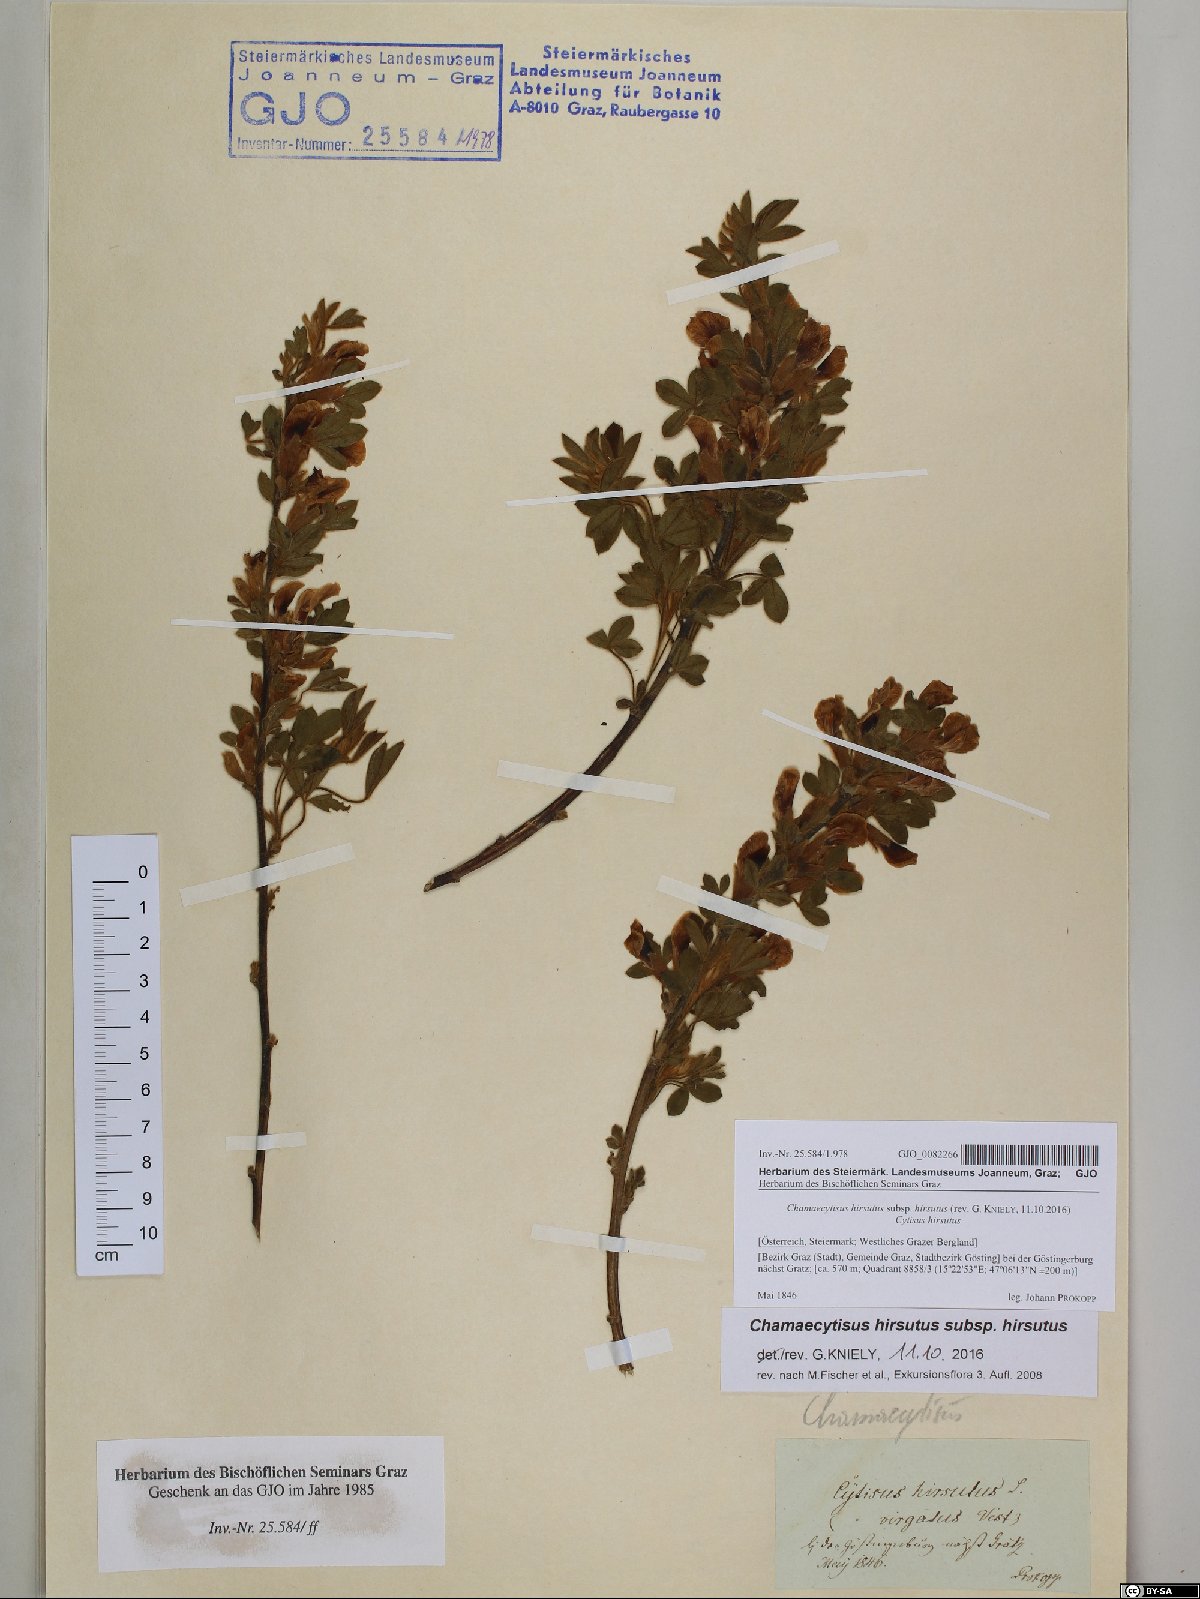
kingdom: Plantae
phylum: Tracheophyta
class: Magnoliopsida
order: Fabales
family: Fabaceae
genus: Chamaecytisus
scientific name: Chamaecytisus hirsutus
